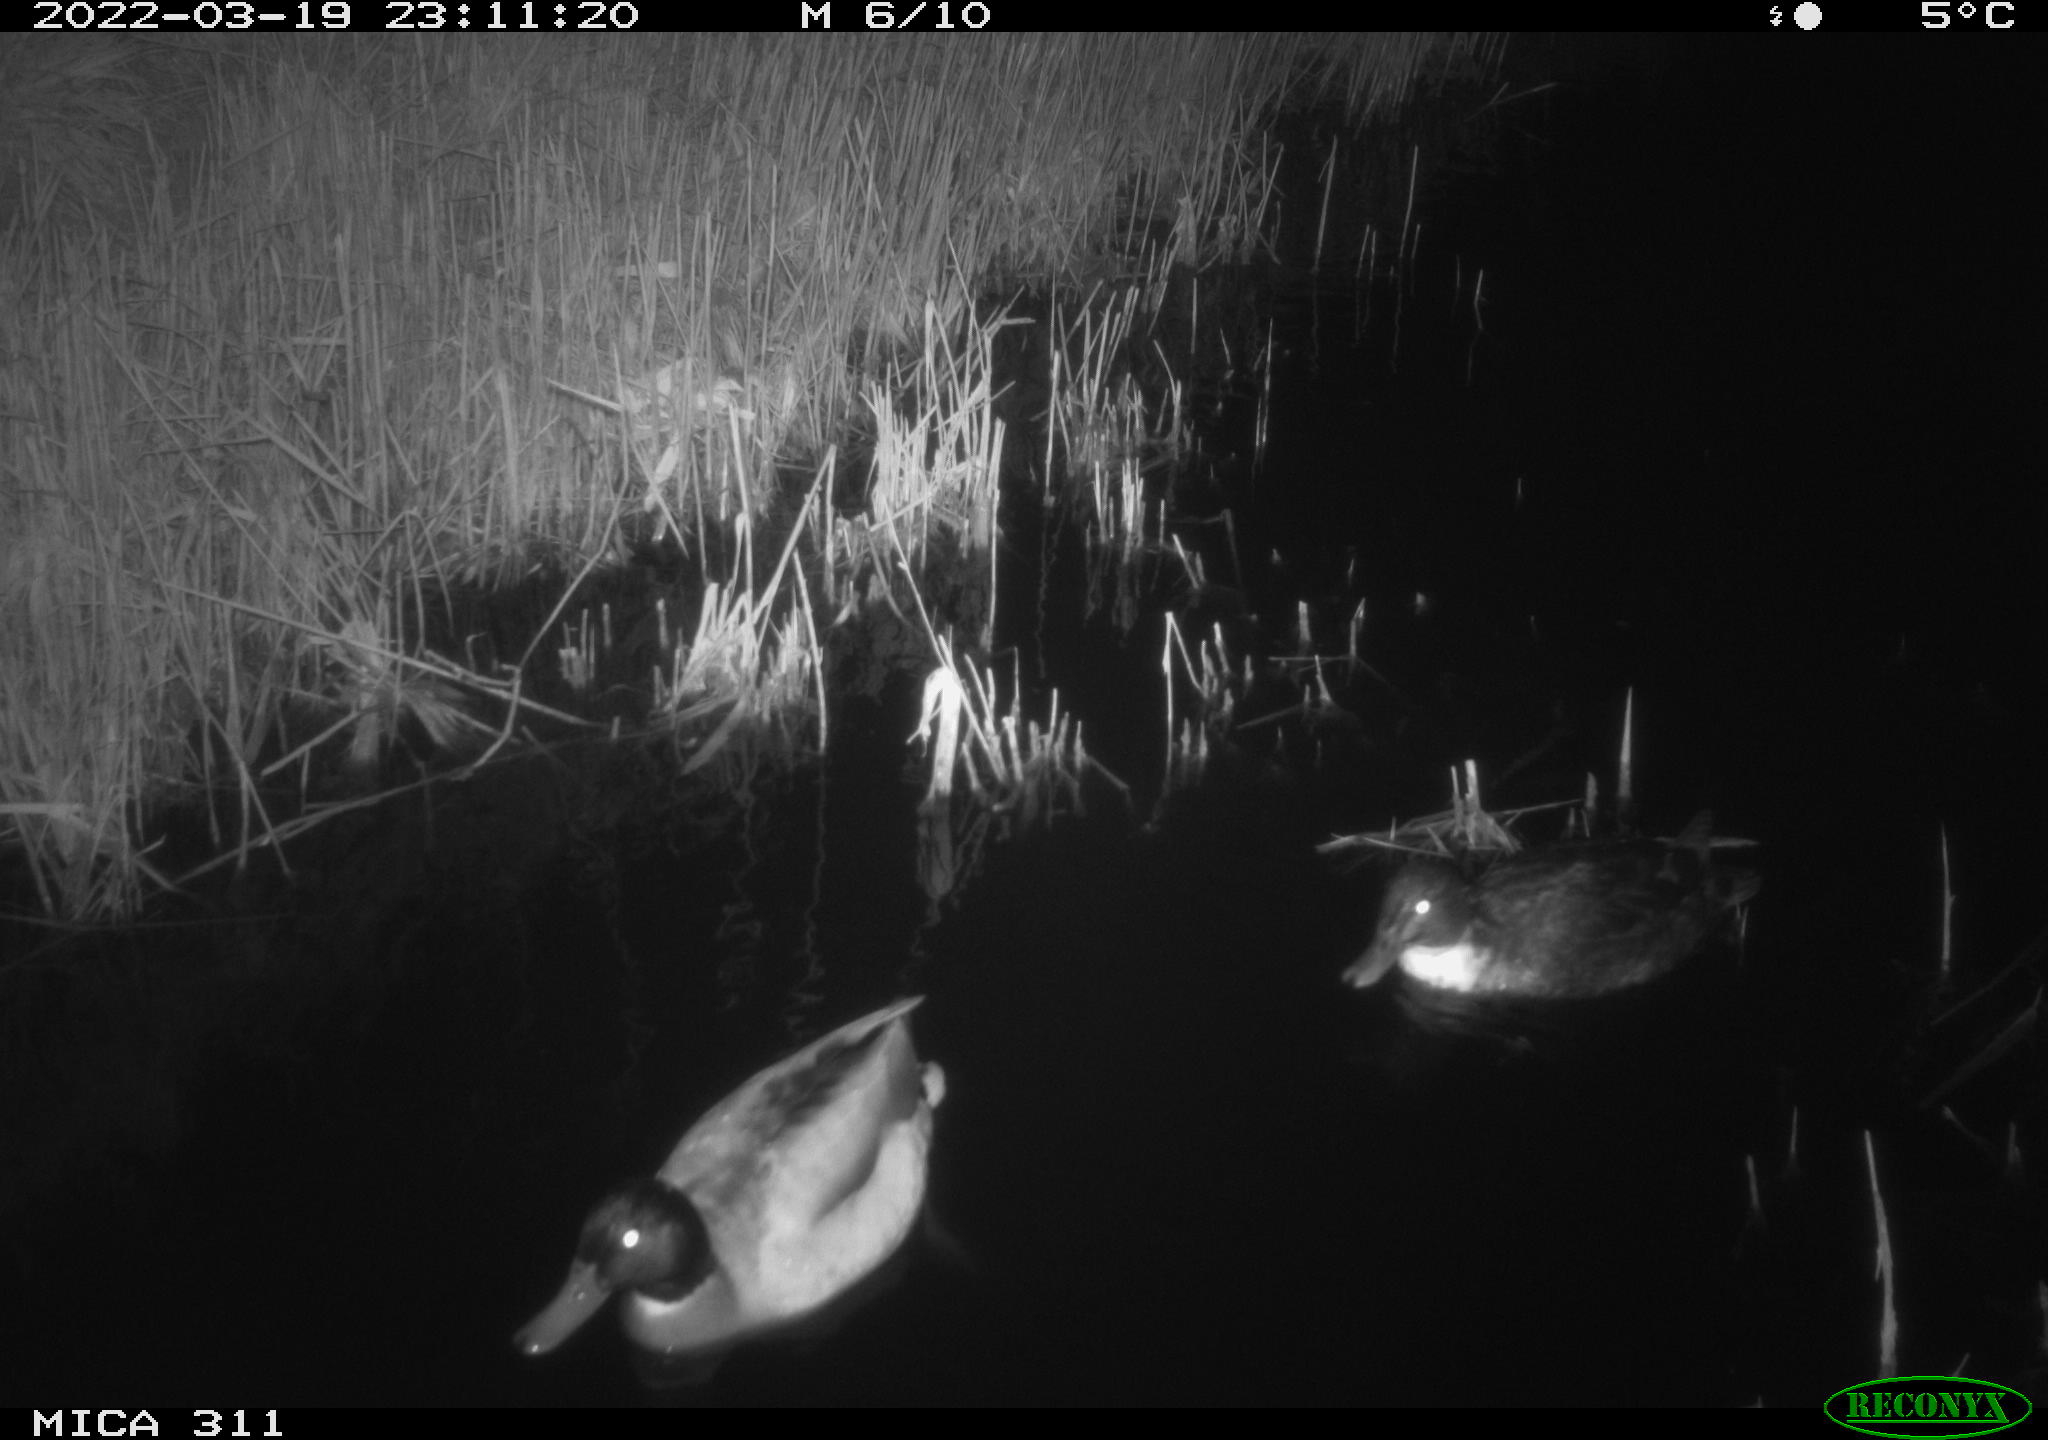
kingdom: Animalia
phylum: Chordata
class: Aves
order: Anseriformes
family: Anatidae
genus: Anas
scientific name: Anas
